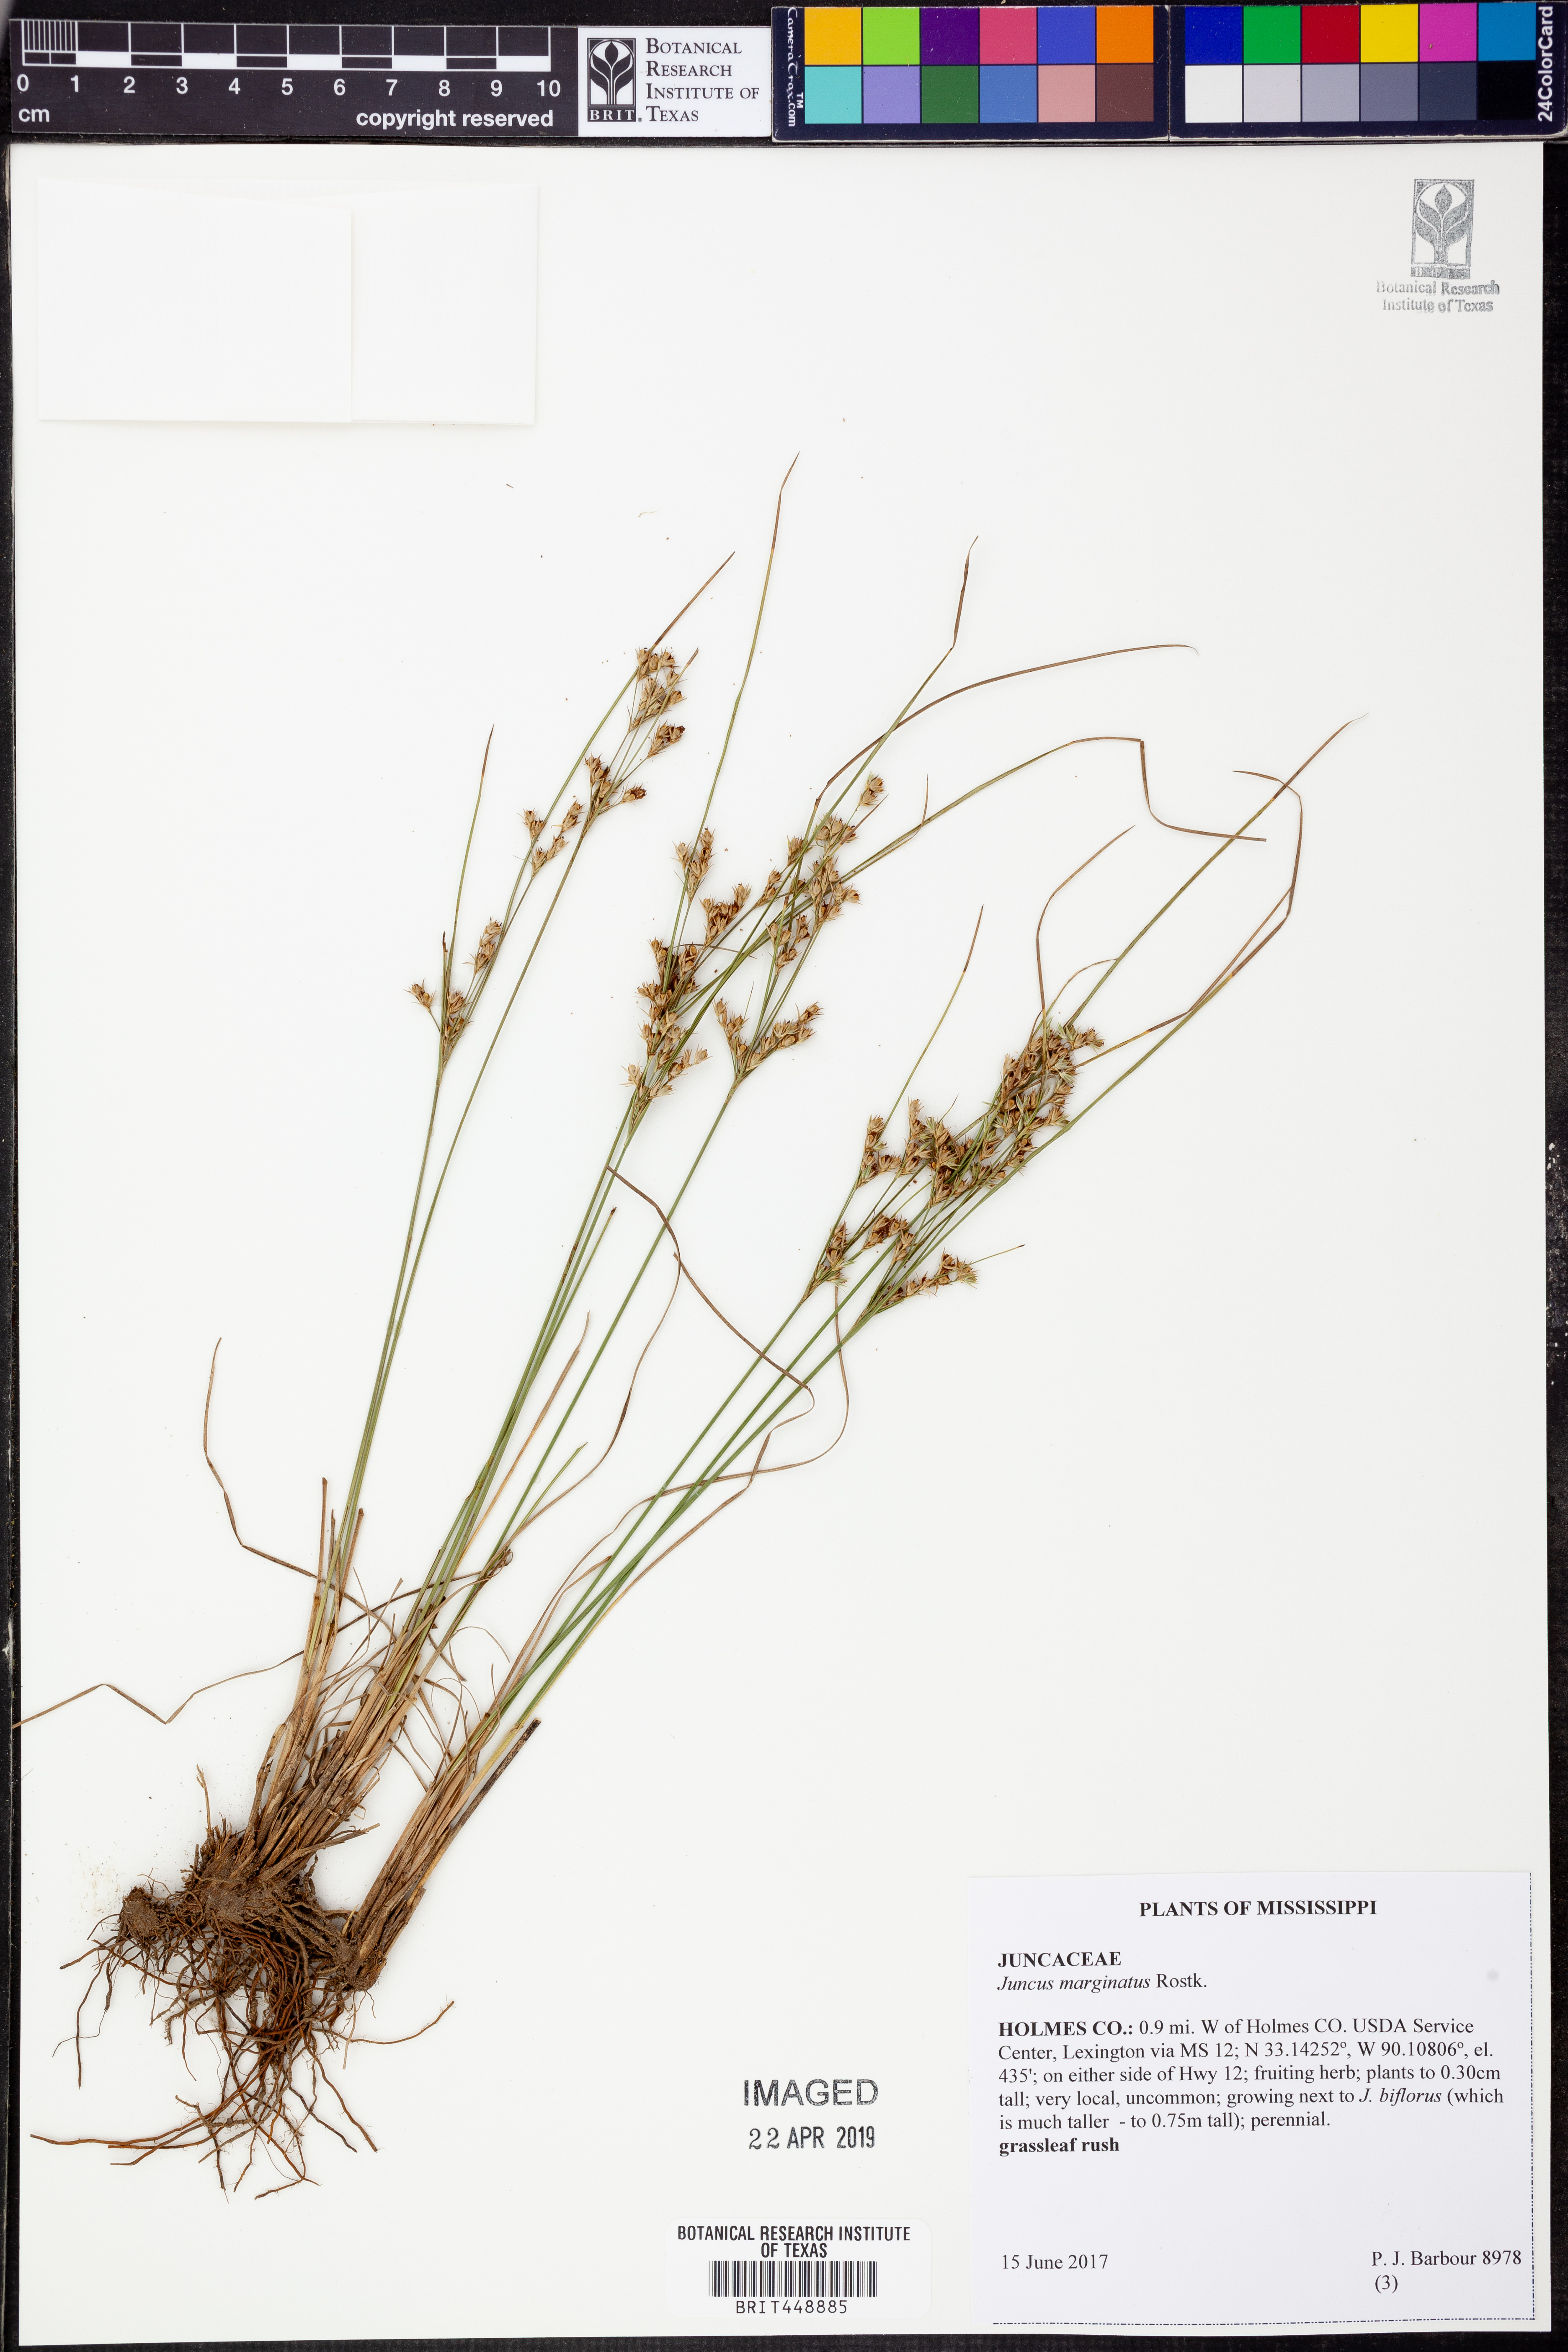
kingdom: Plantae
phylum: Tracheophyta
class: Liliopsida
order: Poales
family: Juncaceae
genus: Juncus
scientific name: Juncus marginatus
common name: Grass-leaf rush
